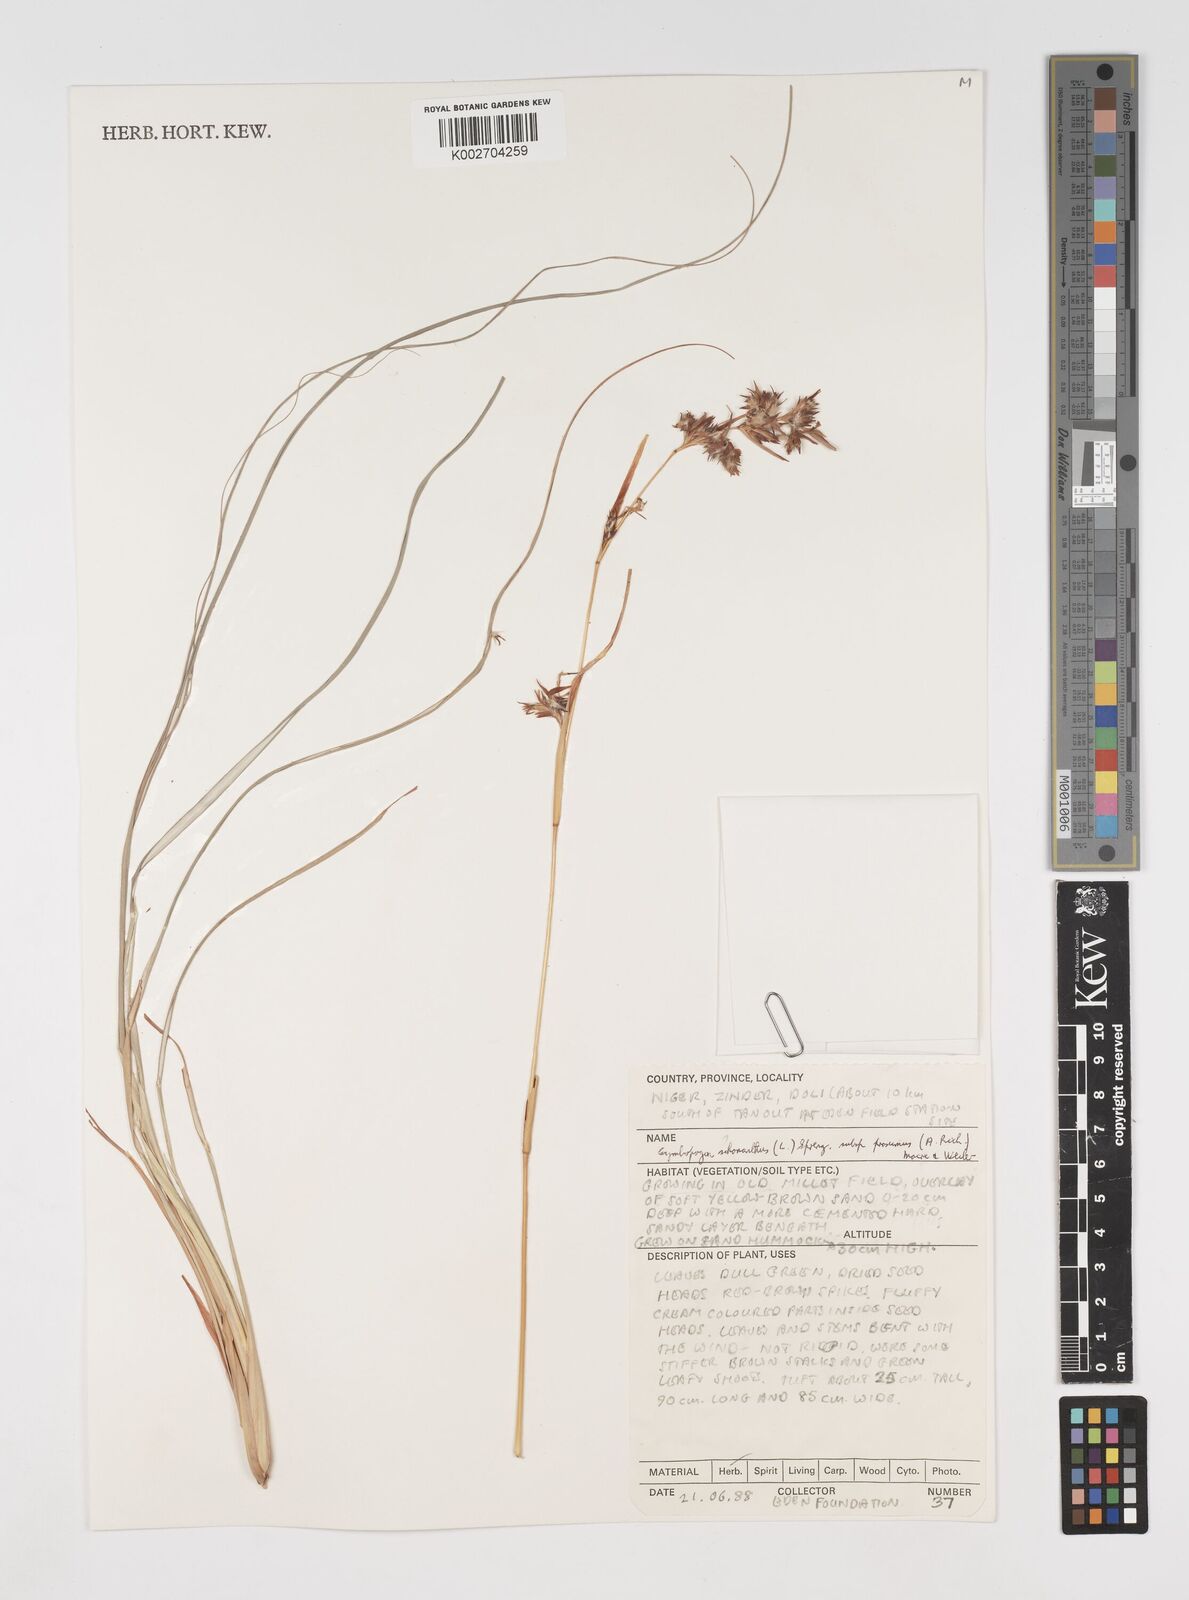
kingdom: Plantae
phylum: Tracheophyta
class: Liliopsida
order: Poales
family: Poaceae
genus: Cymbopogon
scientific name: Cymbopogon schoenanthus
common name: Geranium grass
